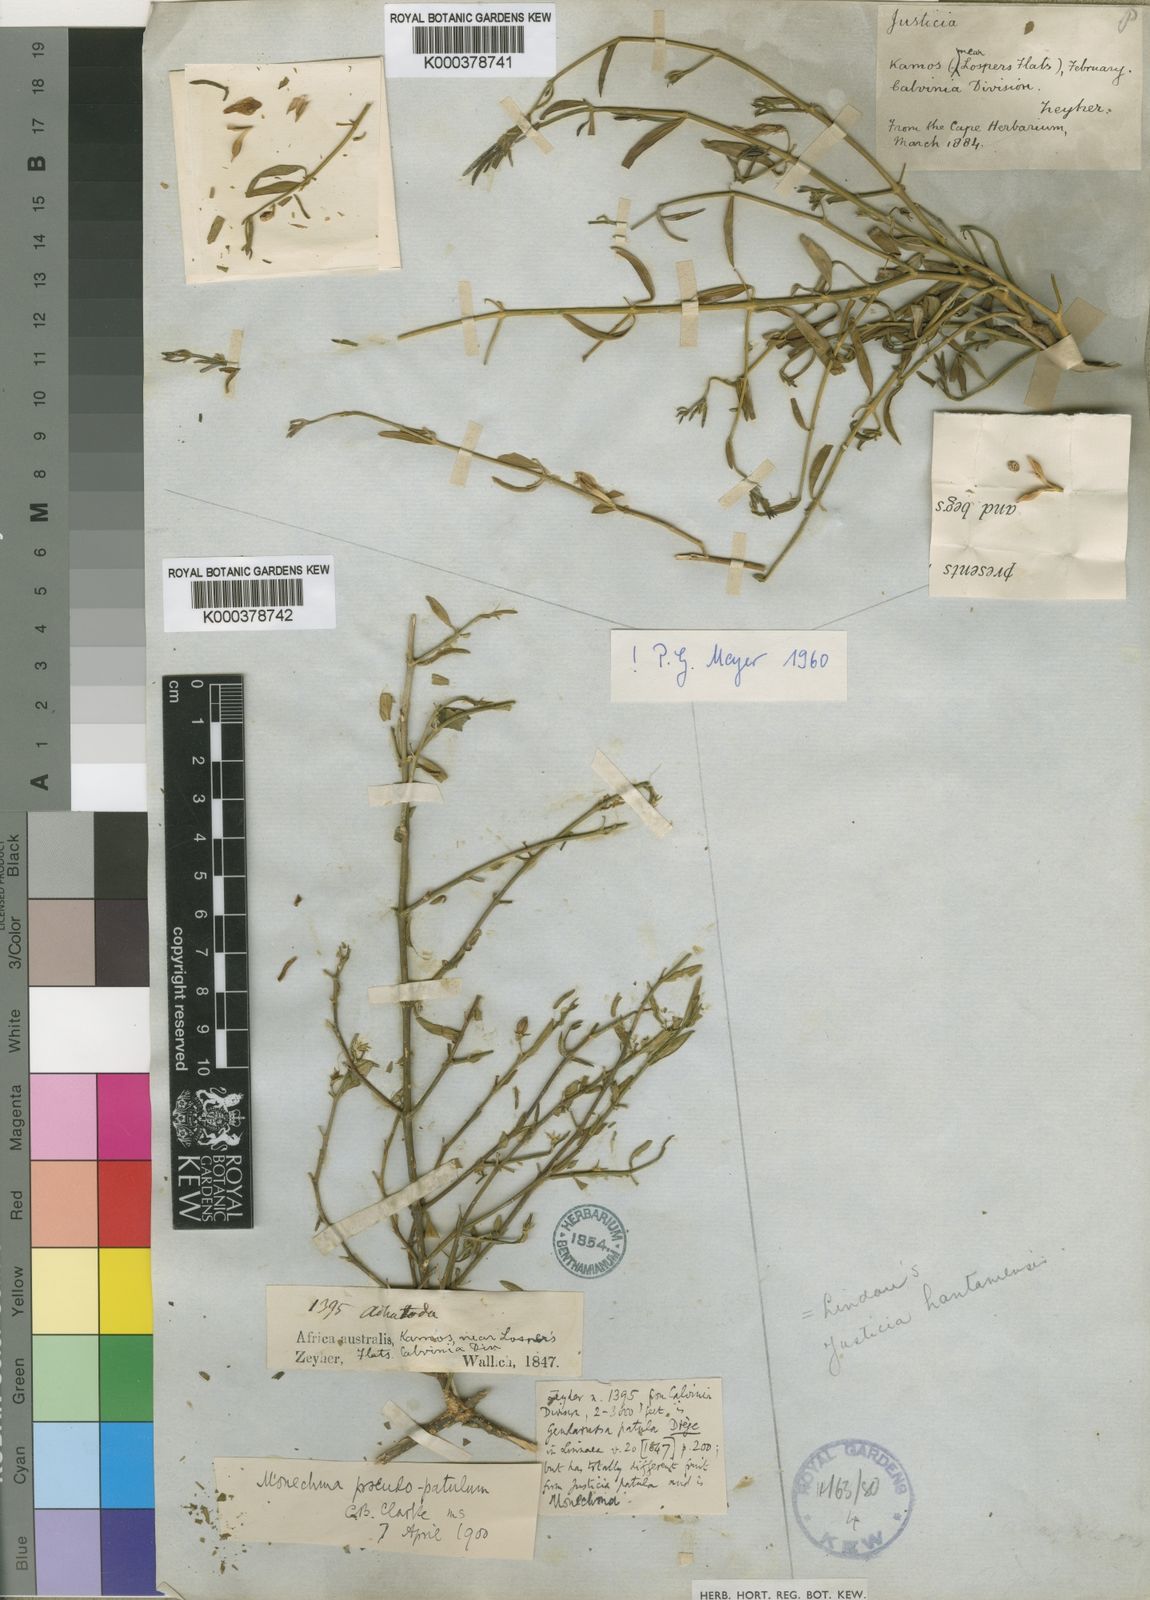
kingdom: Plantae
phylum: Tracheophyta
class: Magnoliopsida
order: Lamiales
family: Acanthaceae
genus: Monechma
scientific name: Monechma spartioides
